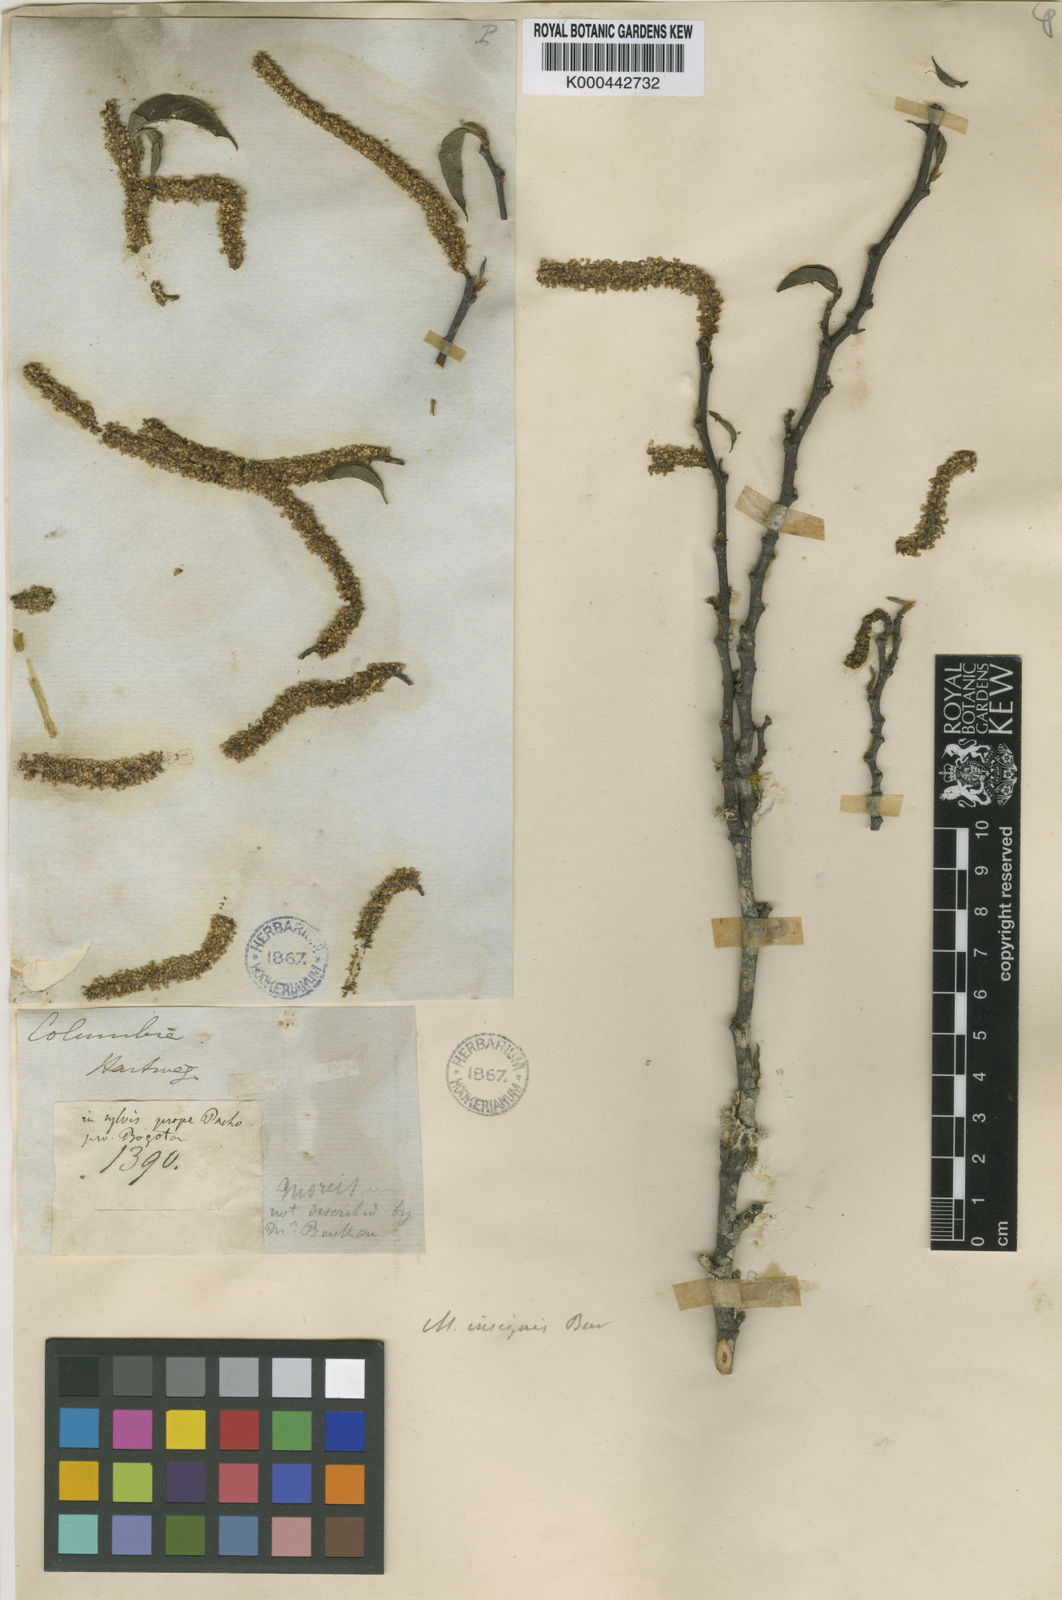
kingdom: Plantae
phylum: Tracheophyta
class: Magnoliopsida
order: Rosales
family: Moraceae
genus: Paratrophis
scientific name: Paratrophis insignis
